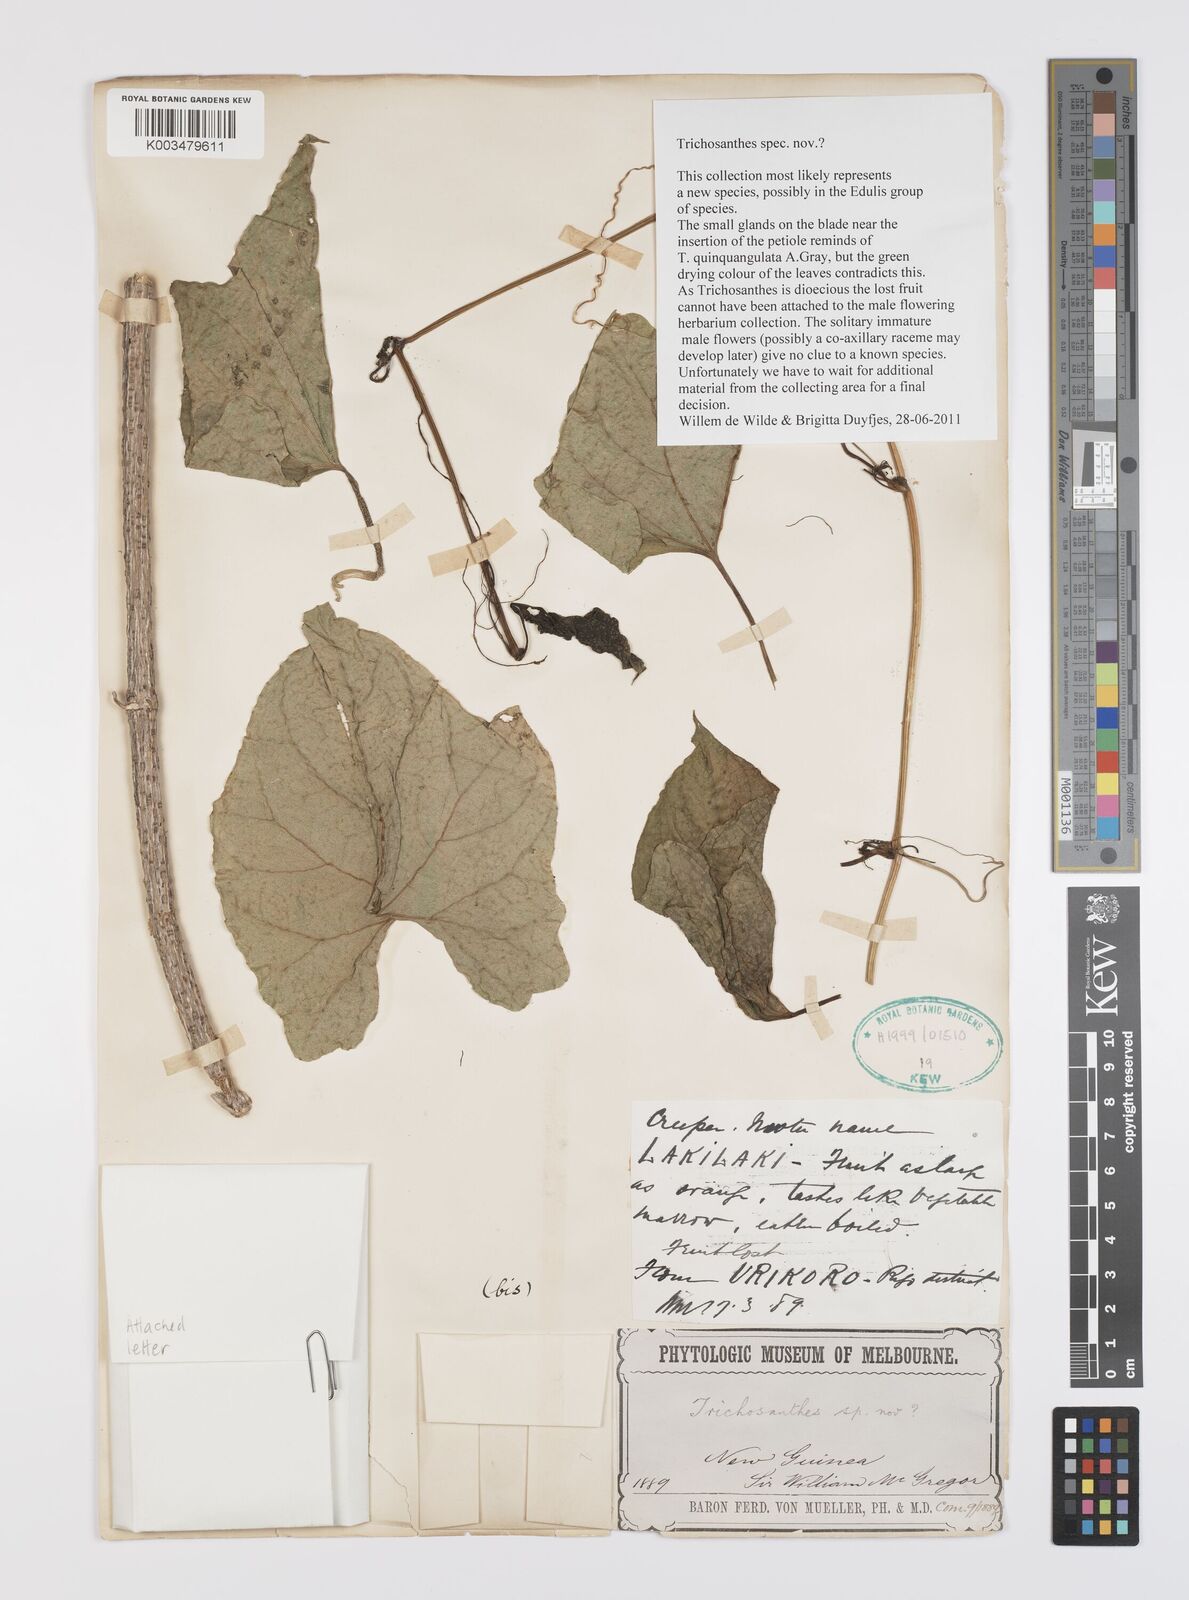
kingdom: Plantae
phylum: Tracheophyta
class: Magnoliopsida
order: Cucurbitales
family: Cucurbitaceae
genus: Trichosanthes
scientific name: Trichosanthes
